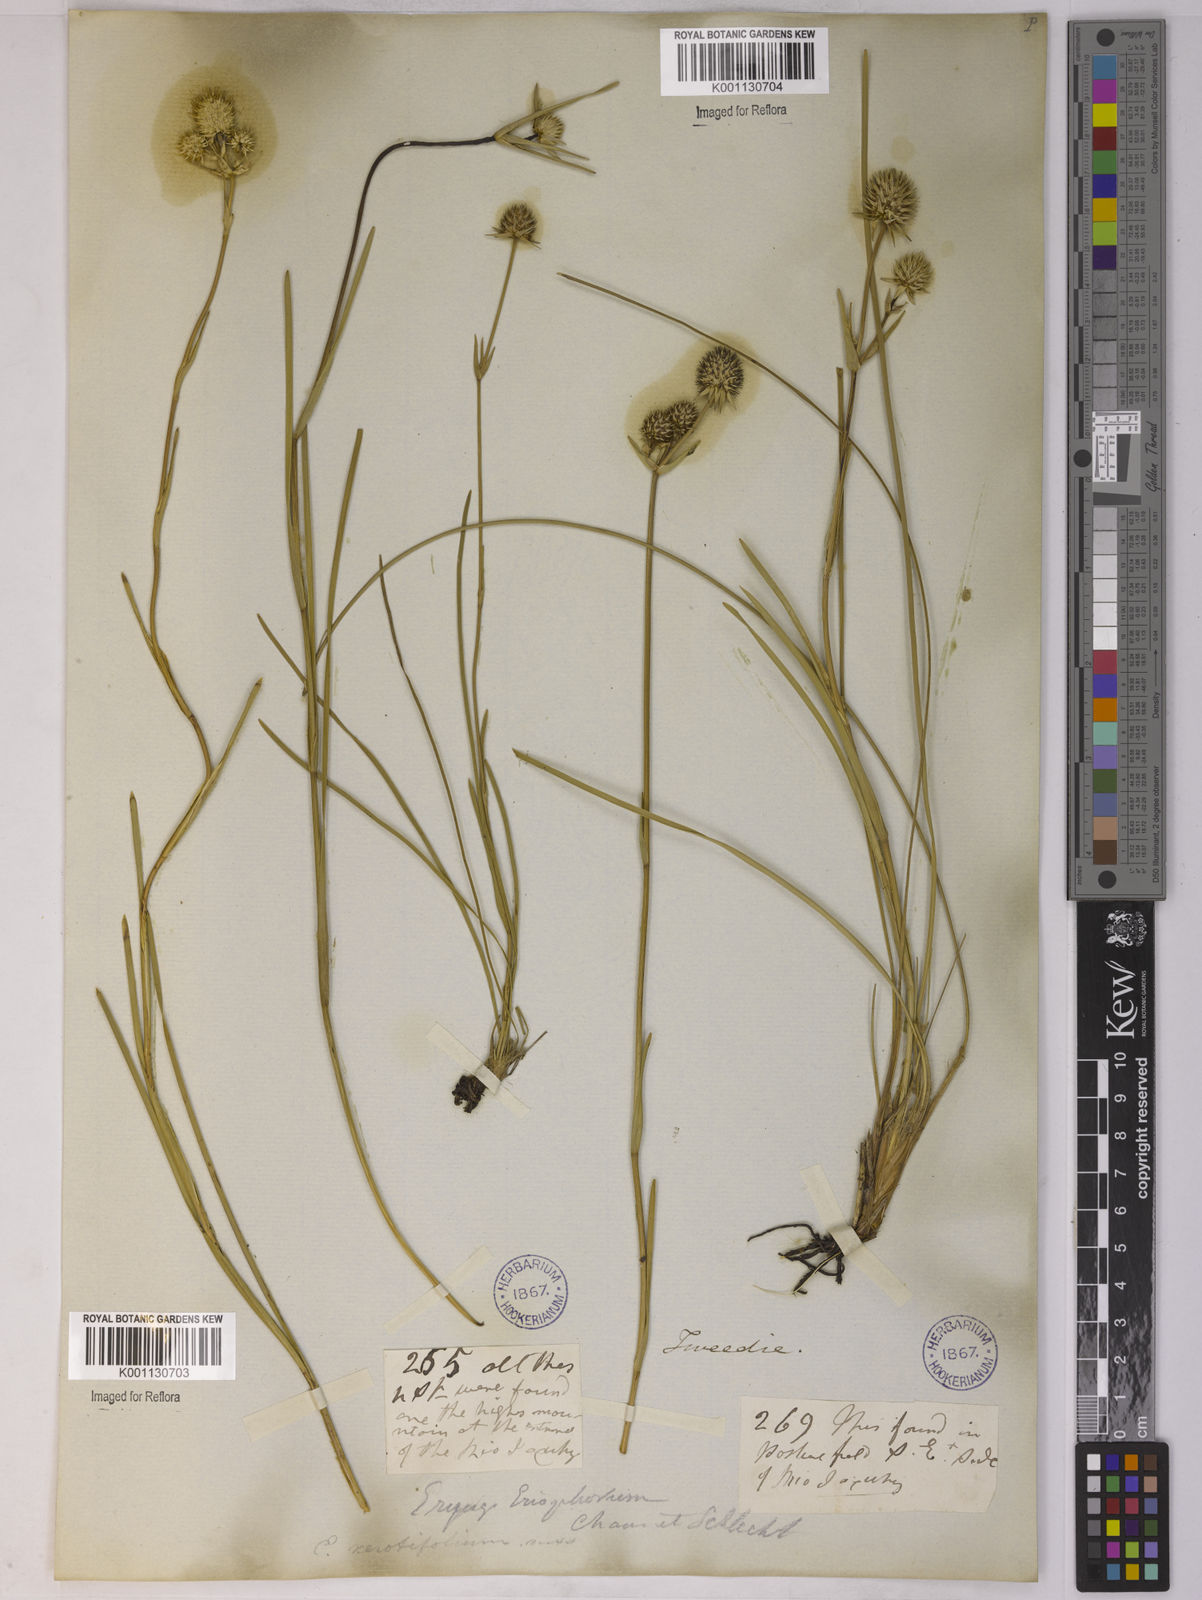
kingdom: Plantae
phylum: Tracheophyta
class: Magnoliopsida
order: Apiales
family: Apiaceae
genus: Eryngium
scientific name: Eryngium eriophorum
